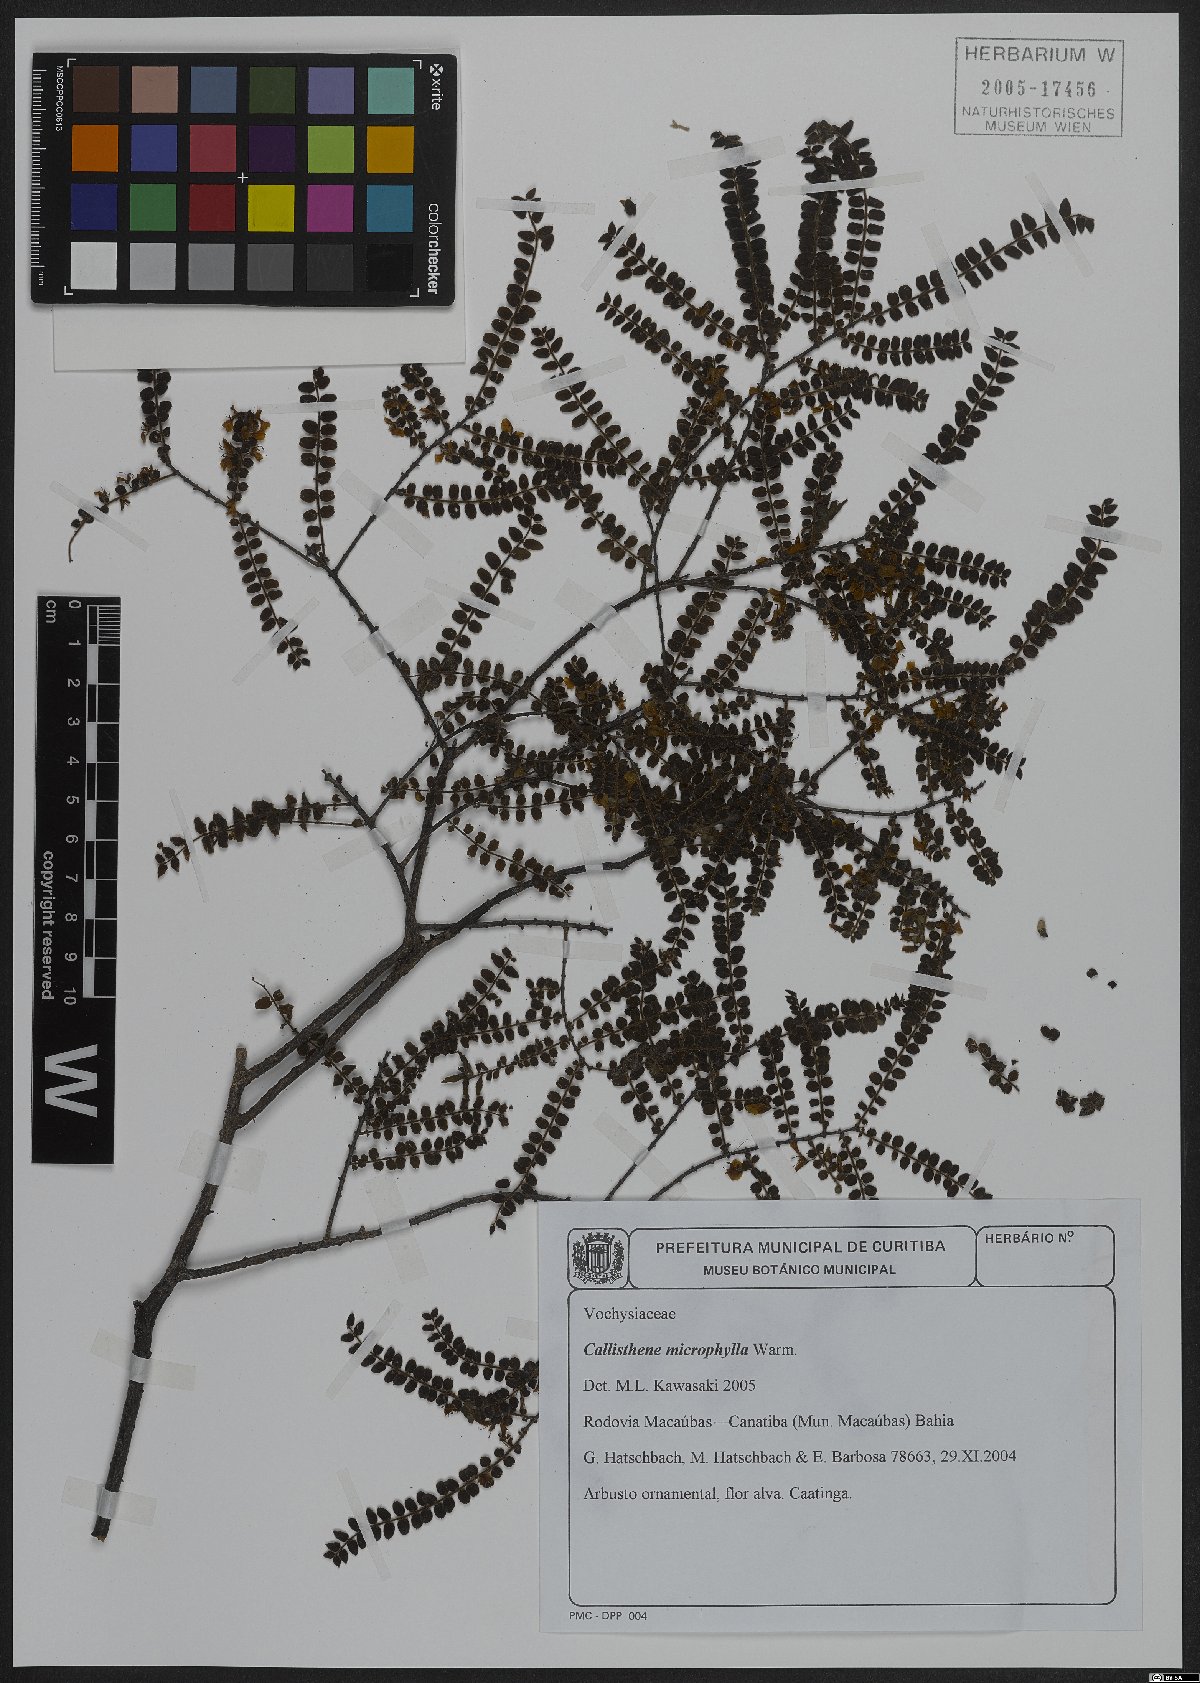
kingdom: Plantae
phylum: Tracheophyta
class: Magnoliopsida
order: Myrtales
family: Vochysiaceae
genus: Callisthene
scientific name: Callisthene microphylla
